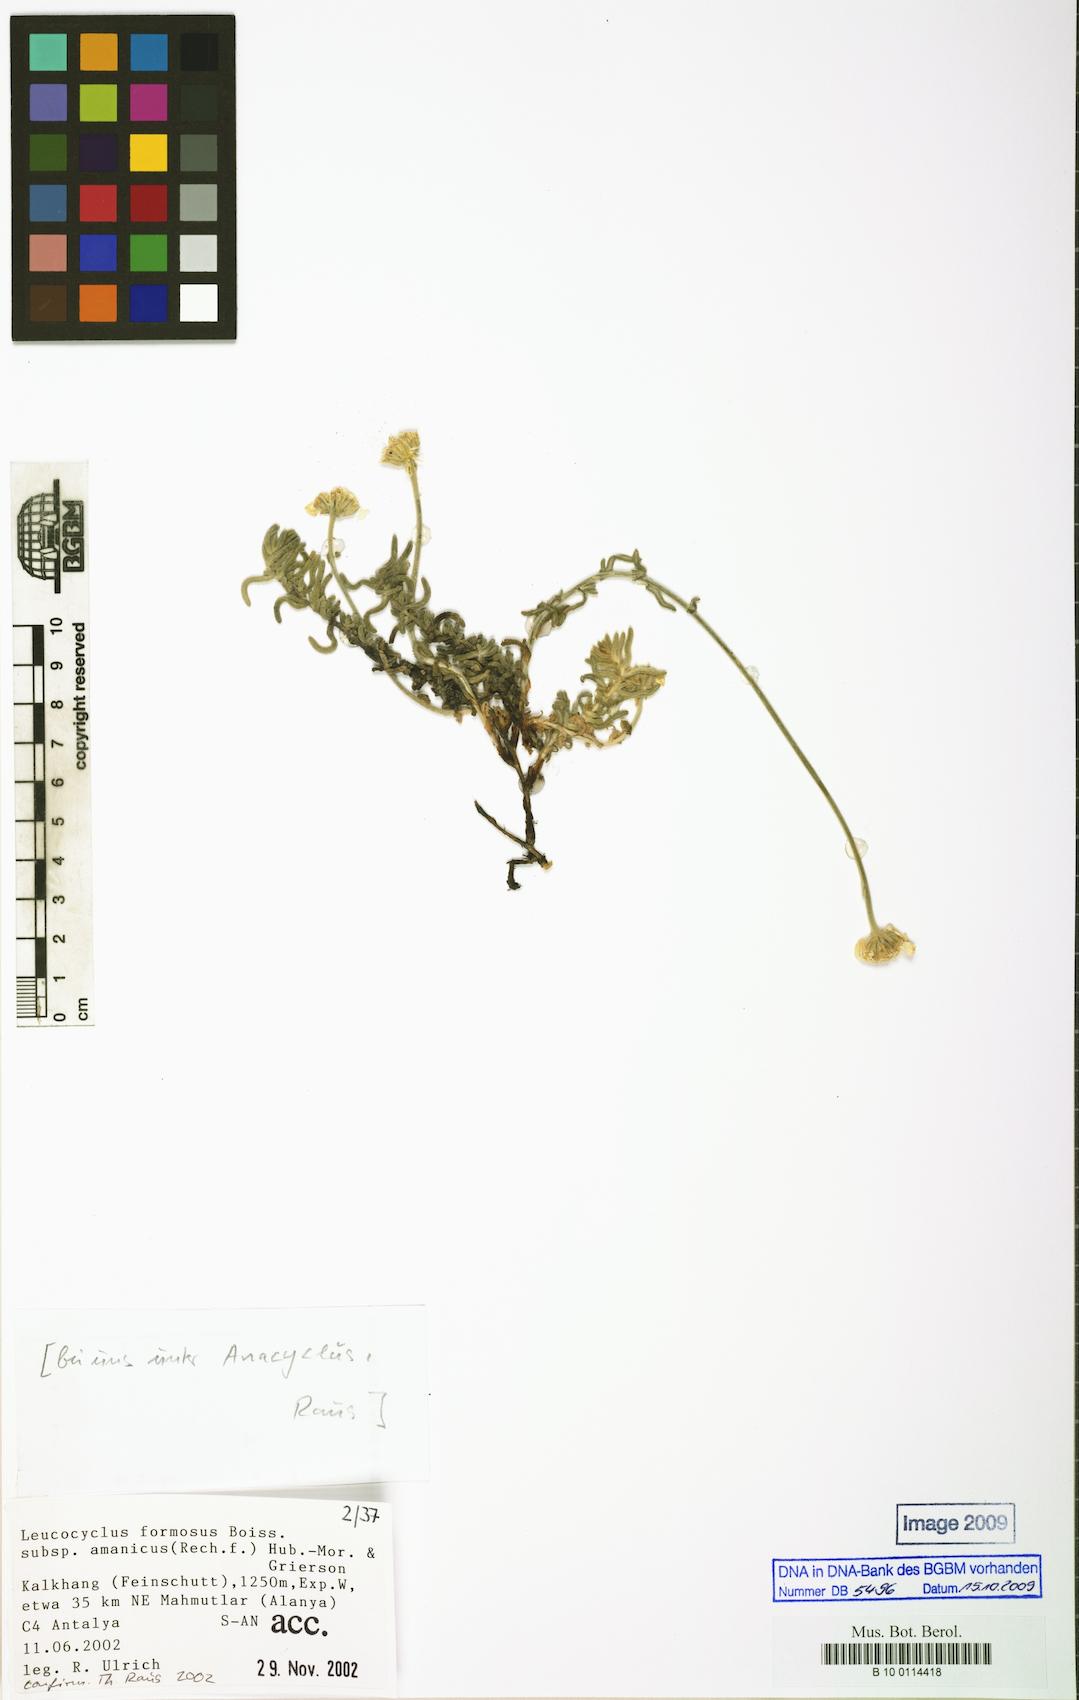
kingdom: Plantae
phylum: Tracheophyta
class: Magnoliopsida
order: Asterales
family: Asteraceae
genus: Achillea
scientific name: Achillea formosa
